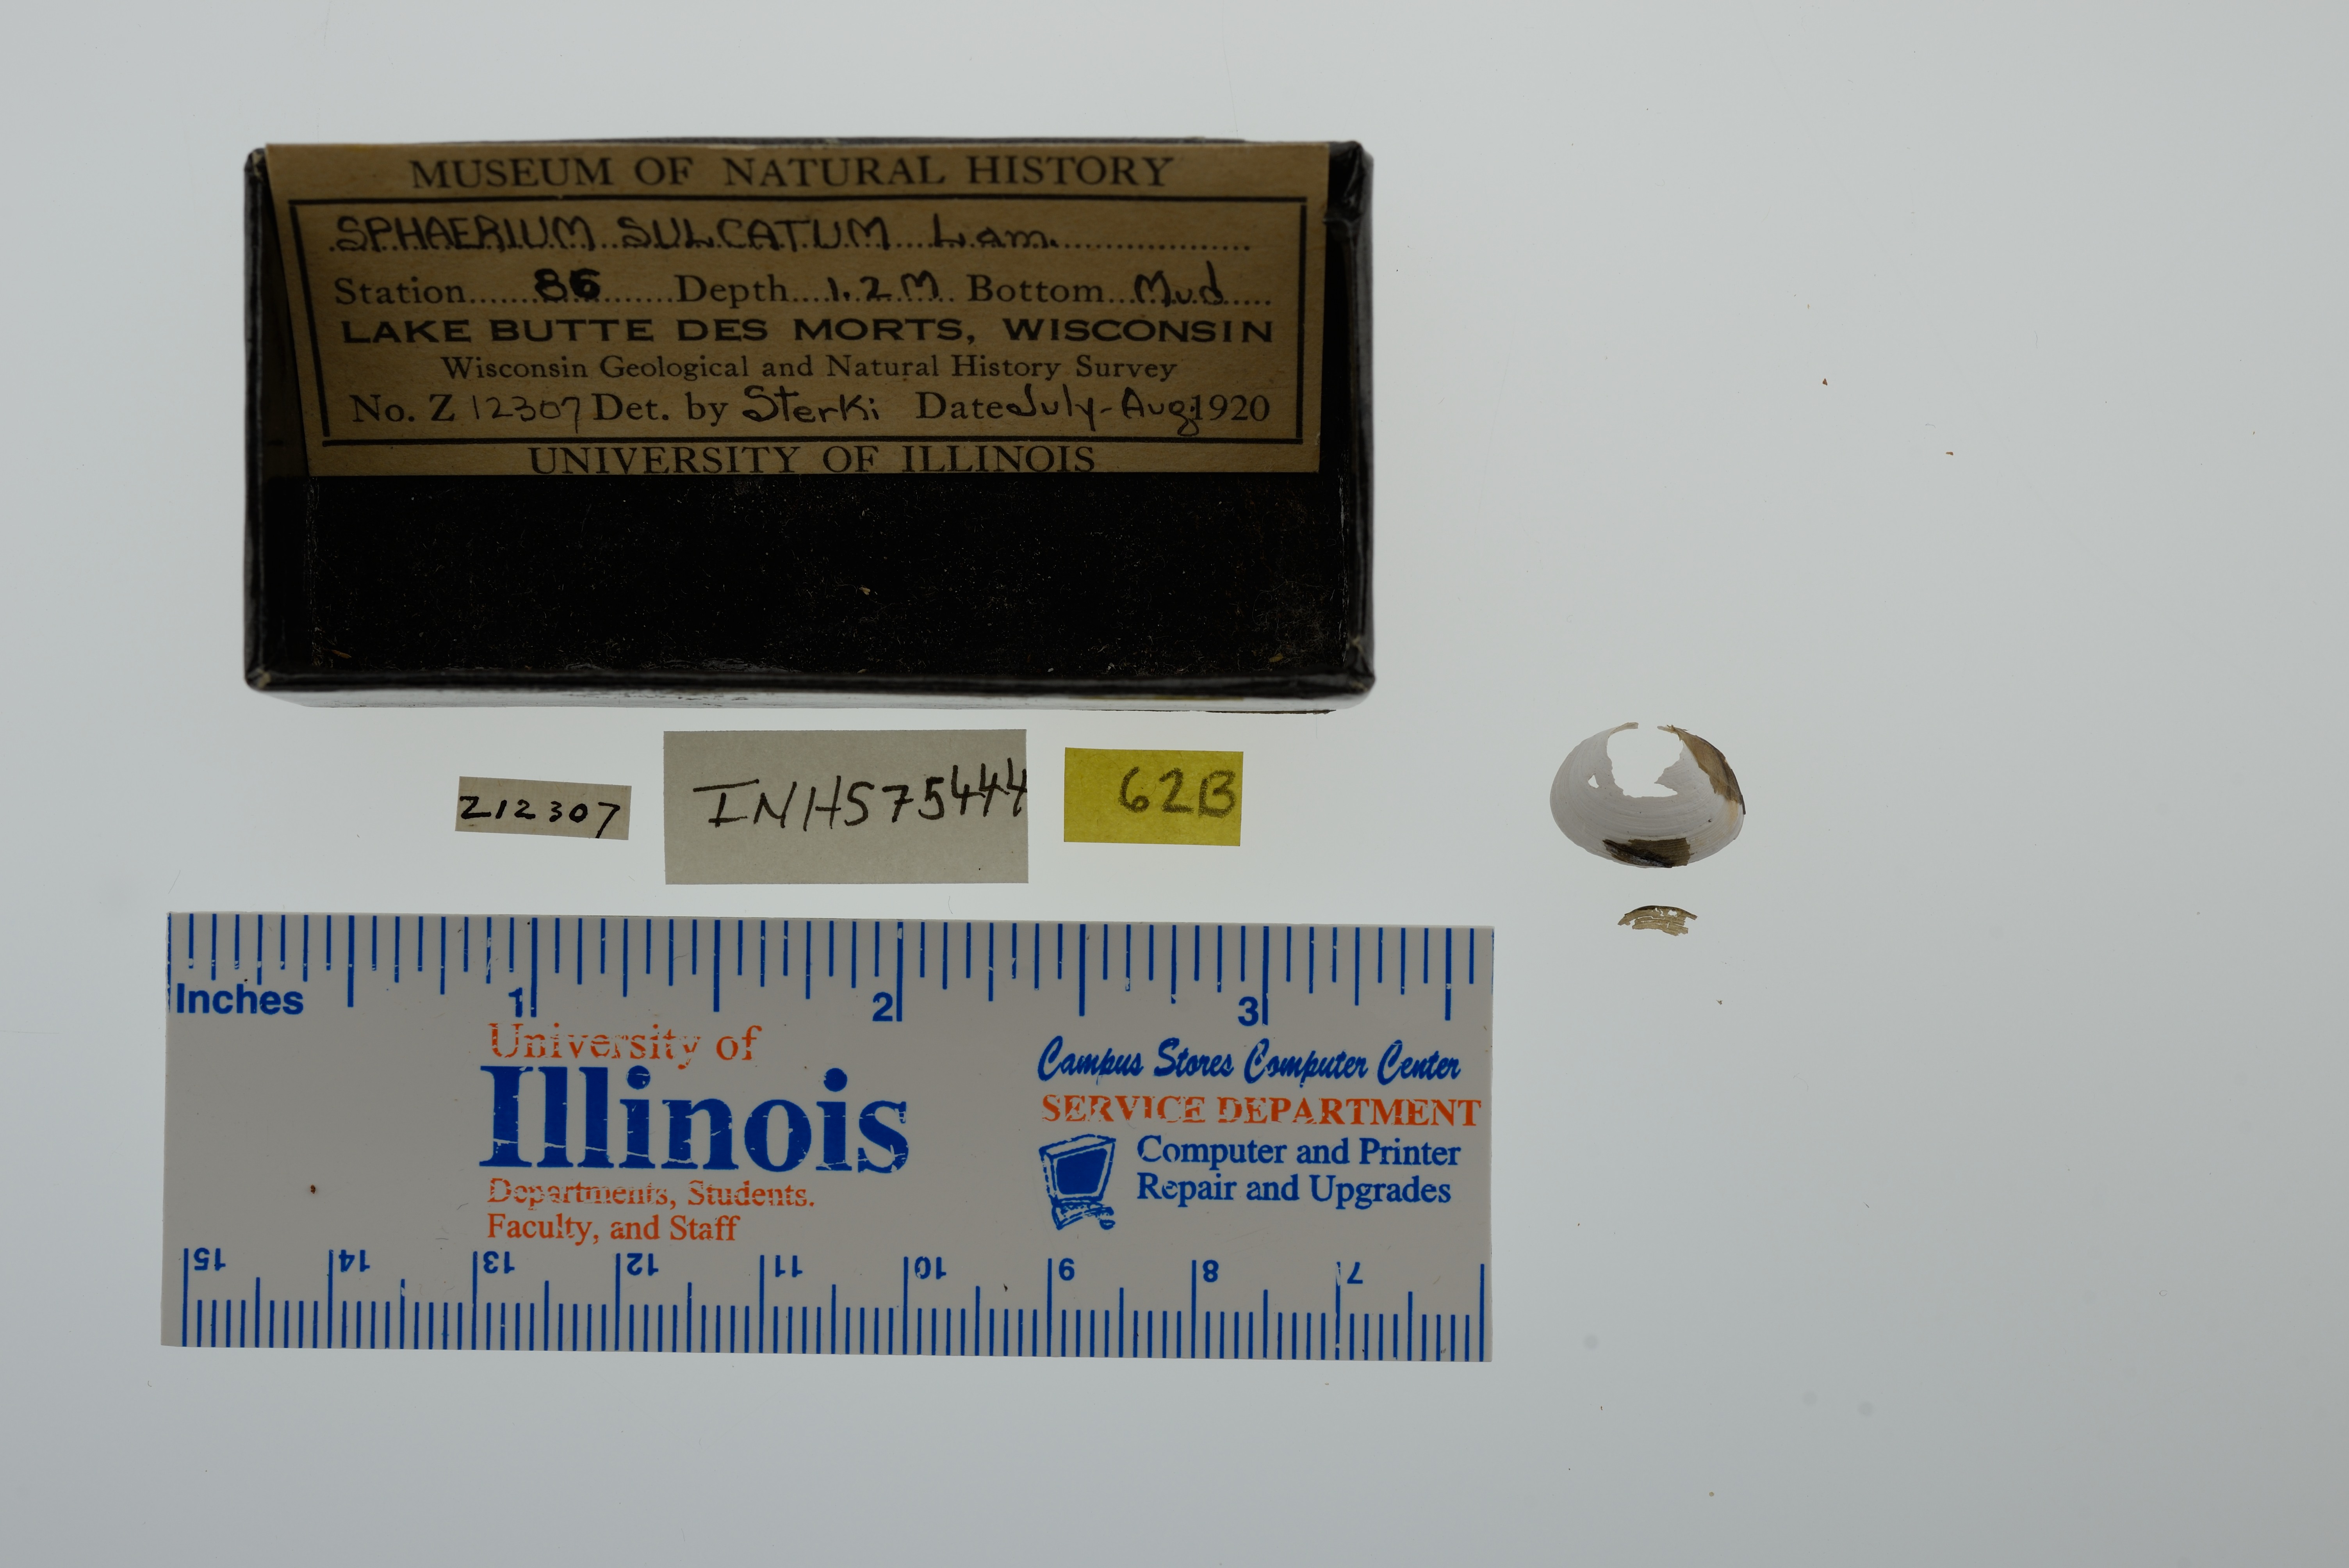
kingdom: Animalia
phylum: Mollusca
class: Bivalvia
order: Sphaeriida
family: Sphaeriidae
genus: Sphaerium
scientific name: Sphaerium simile
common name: Grooved fingernailclam
